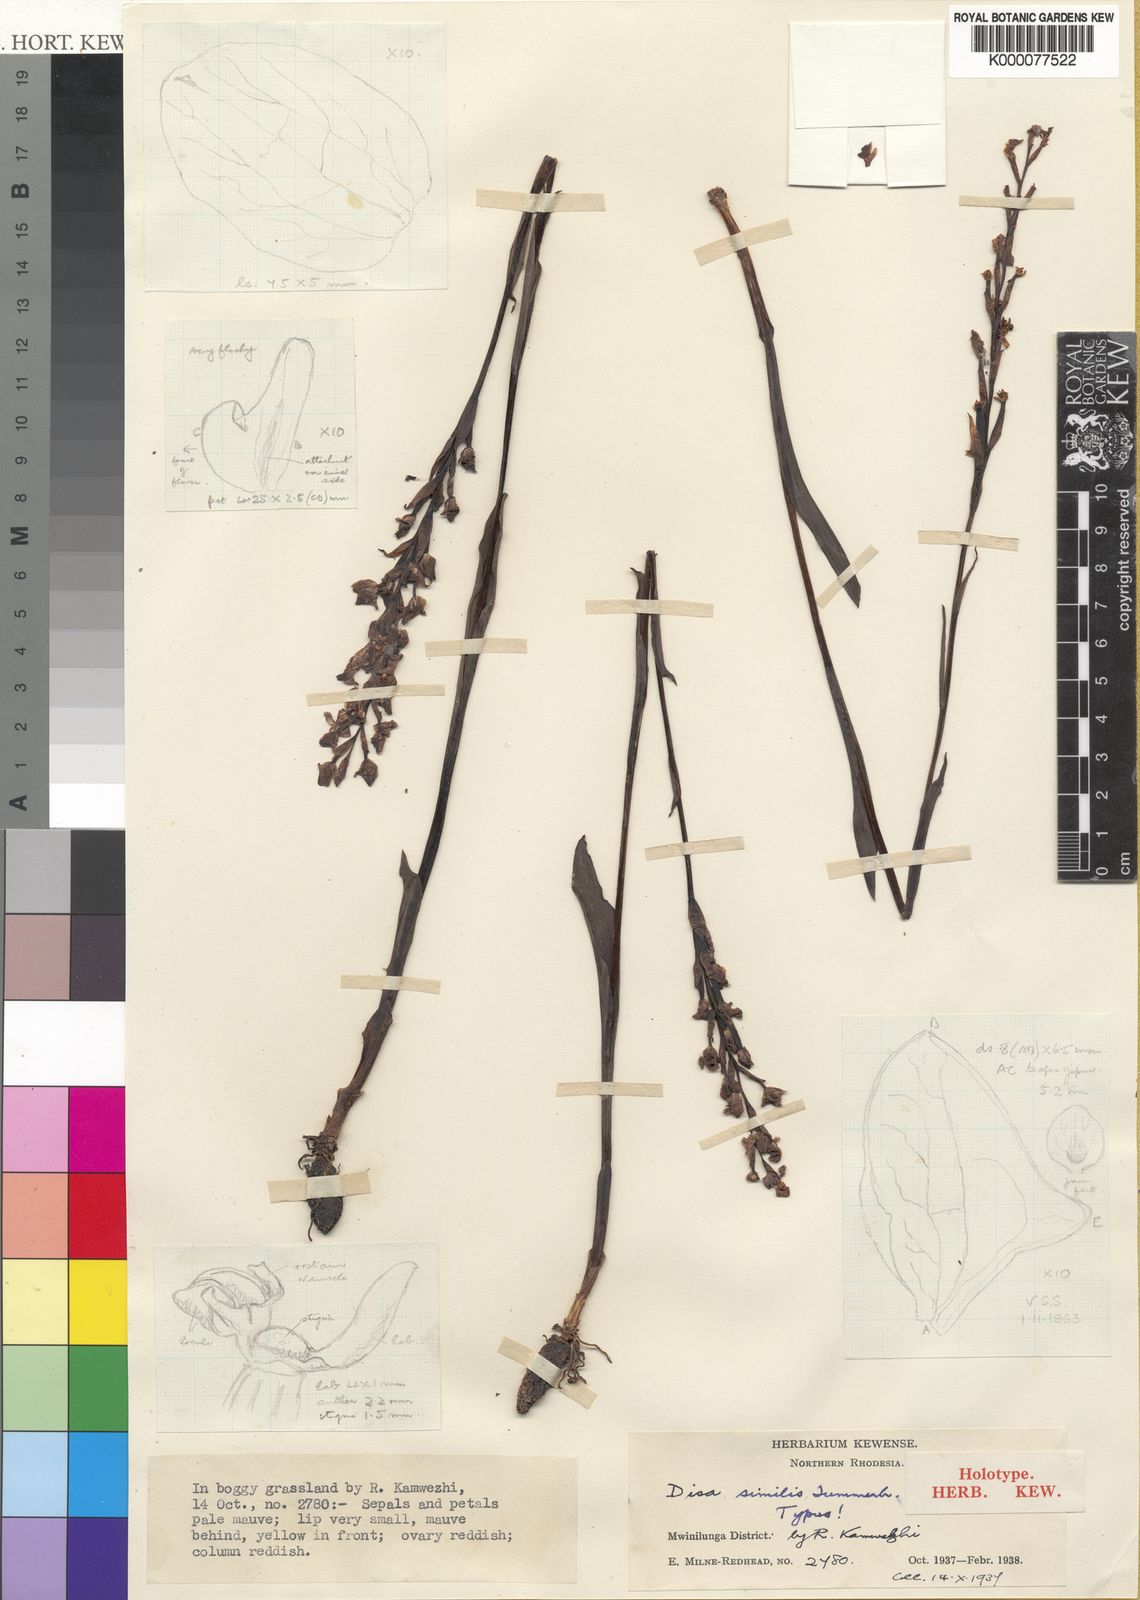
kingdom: Plantae
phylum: Tracheophyta
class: Liliopsida
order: Asparagales
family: Orchidaceae
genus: Disa
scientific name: Disa similis
